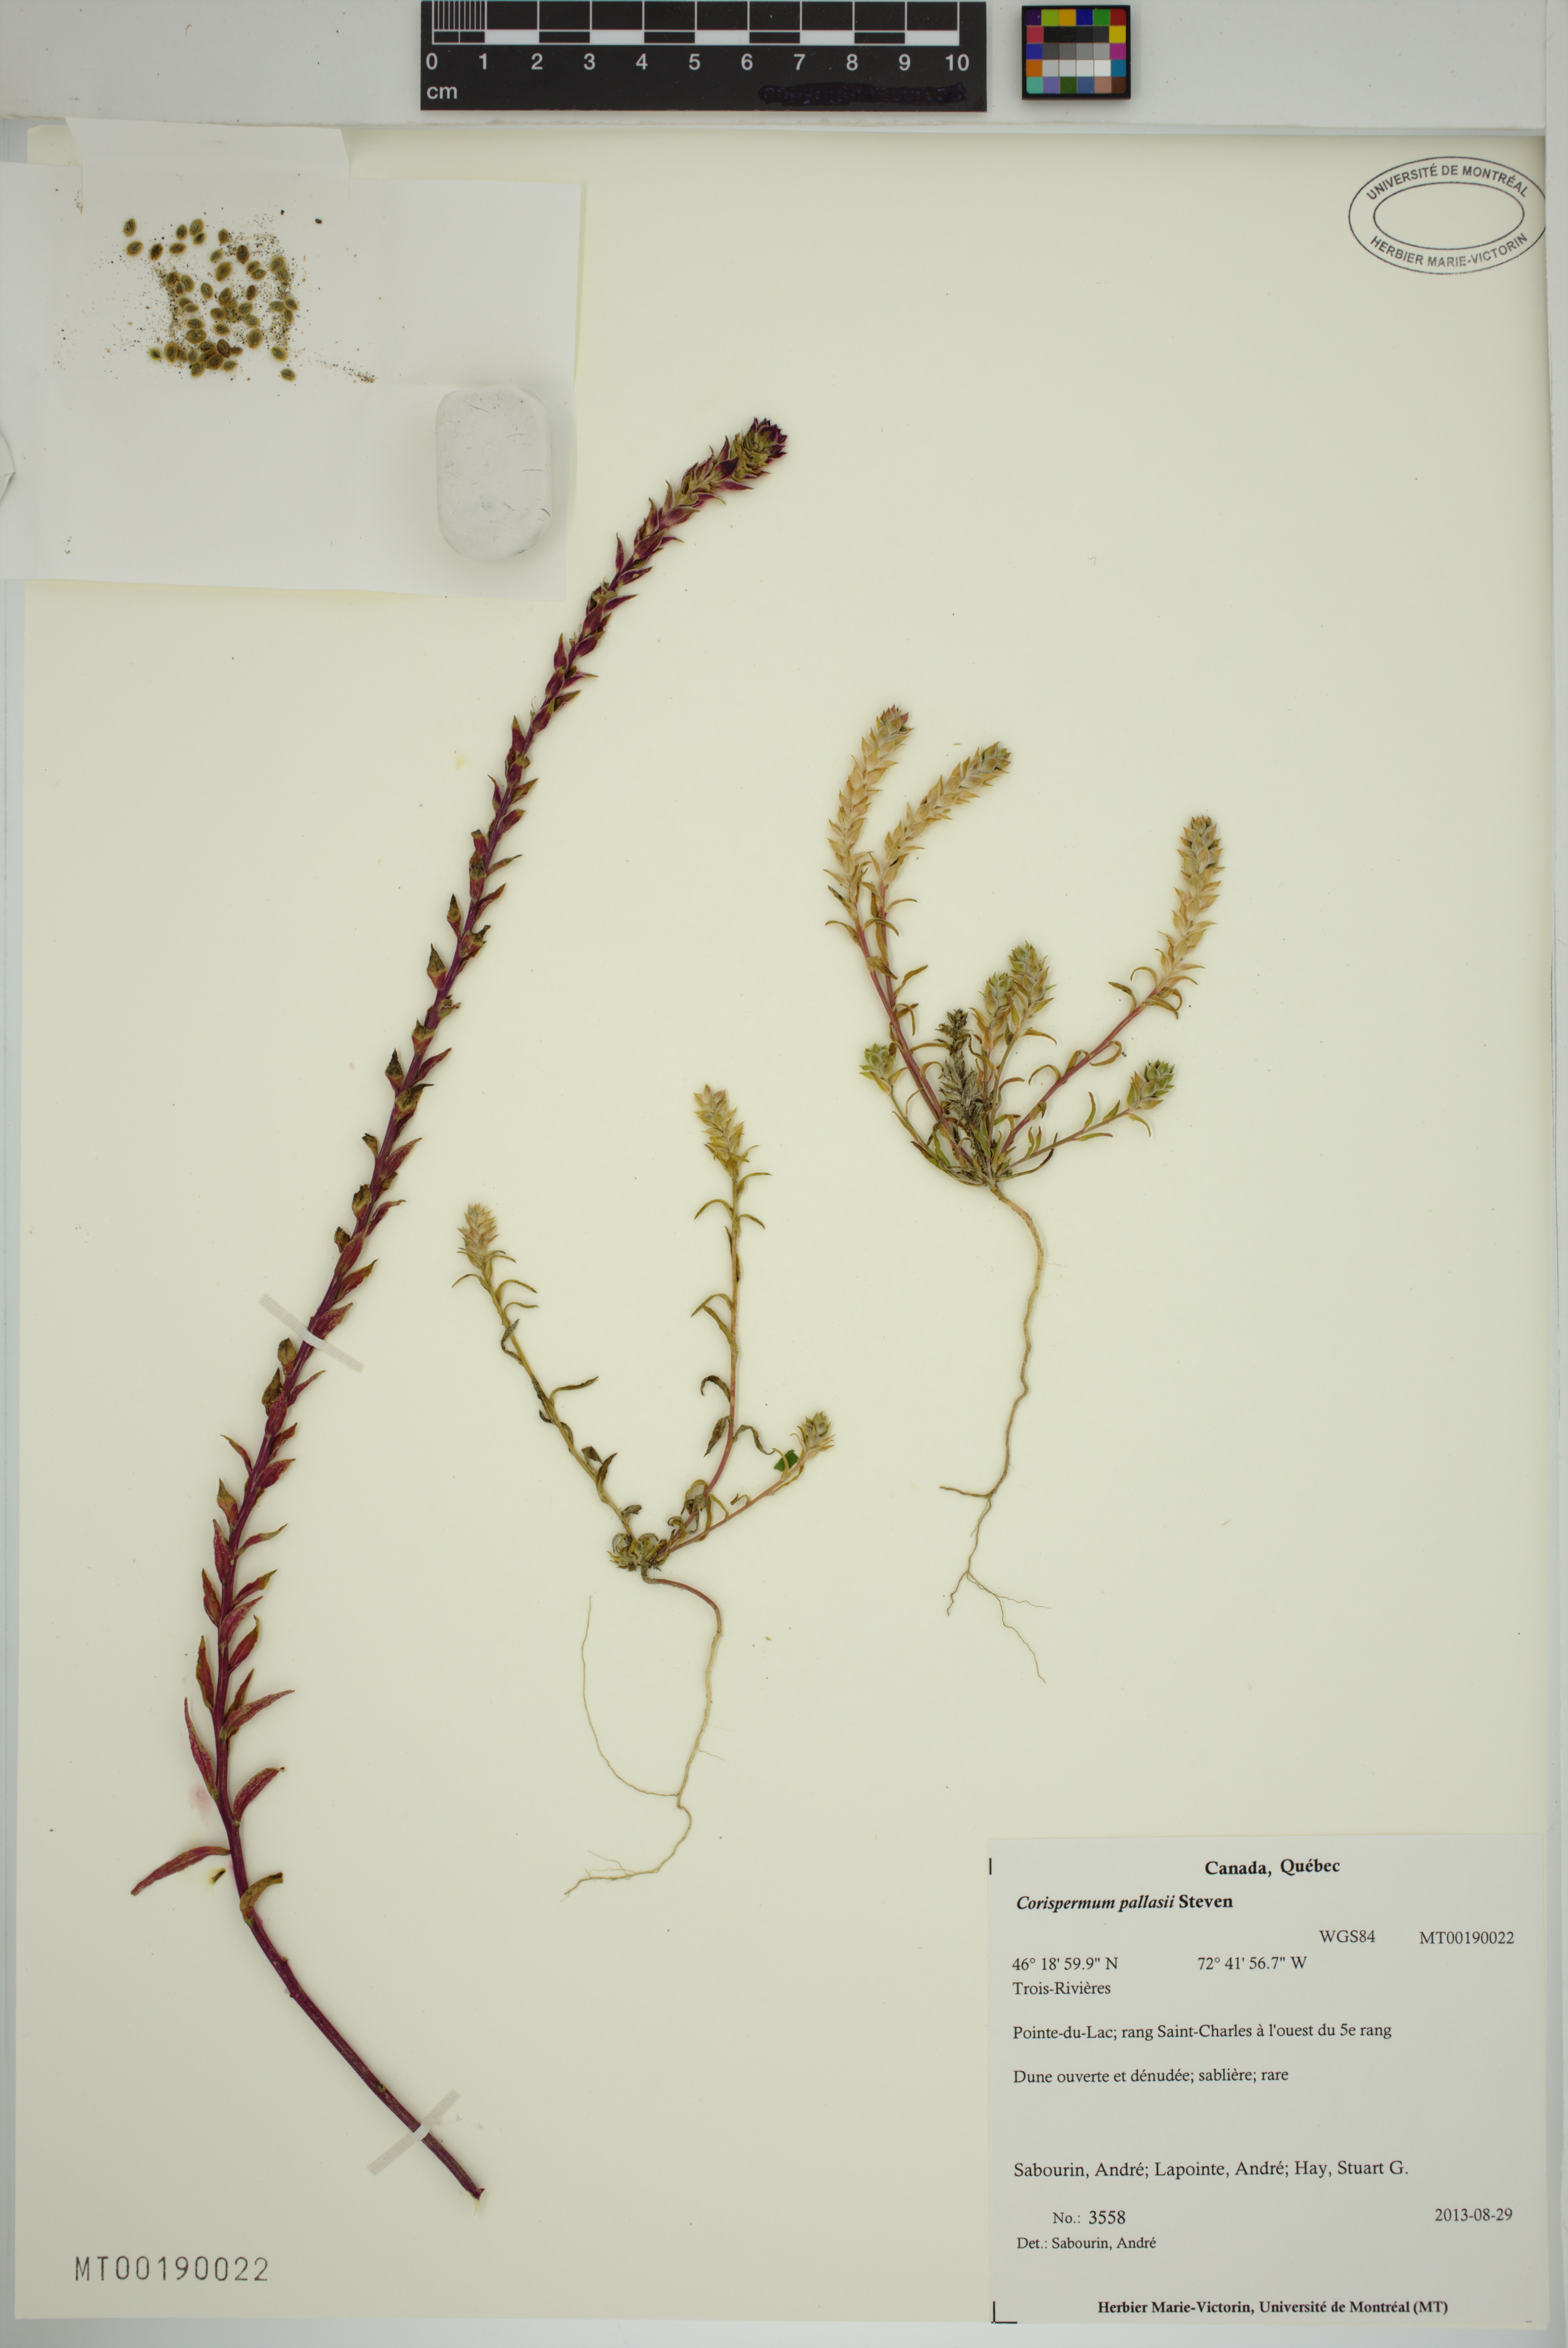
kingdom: Plantae
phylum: Tracheophyta
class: Magnoliopsida
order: Caryophyllales
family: Amaranthaceae
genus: Corispermum
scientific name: Corispermum pallasii
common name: Siberian bugseed
